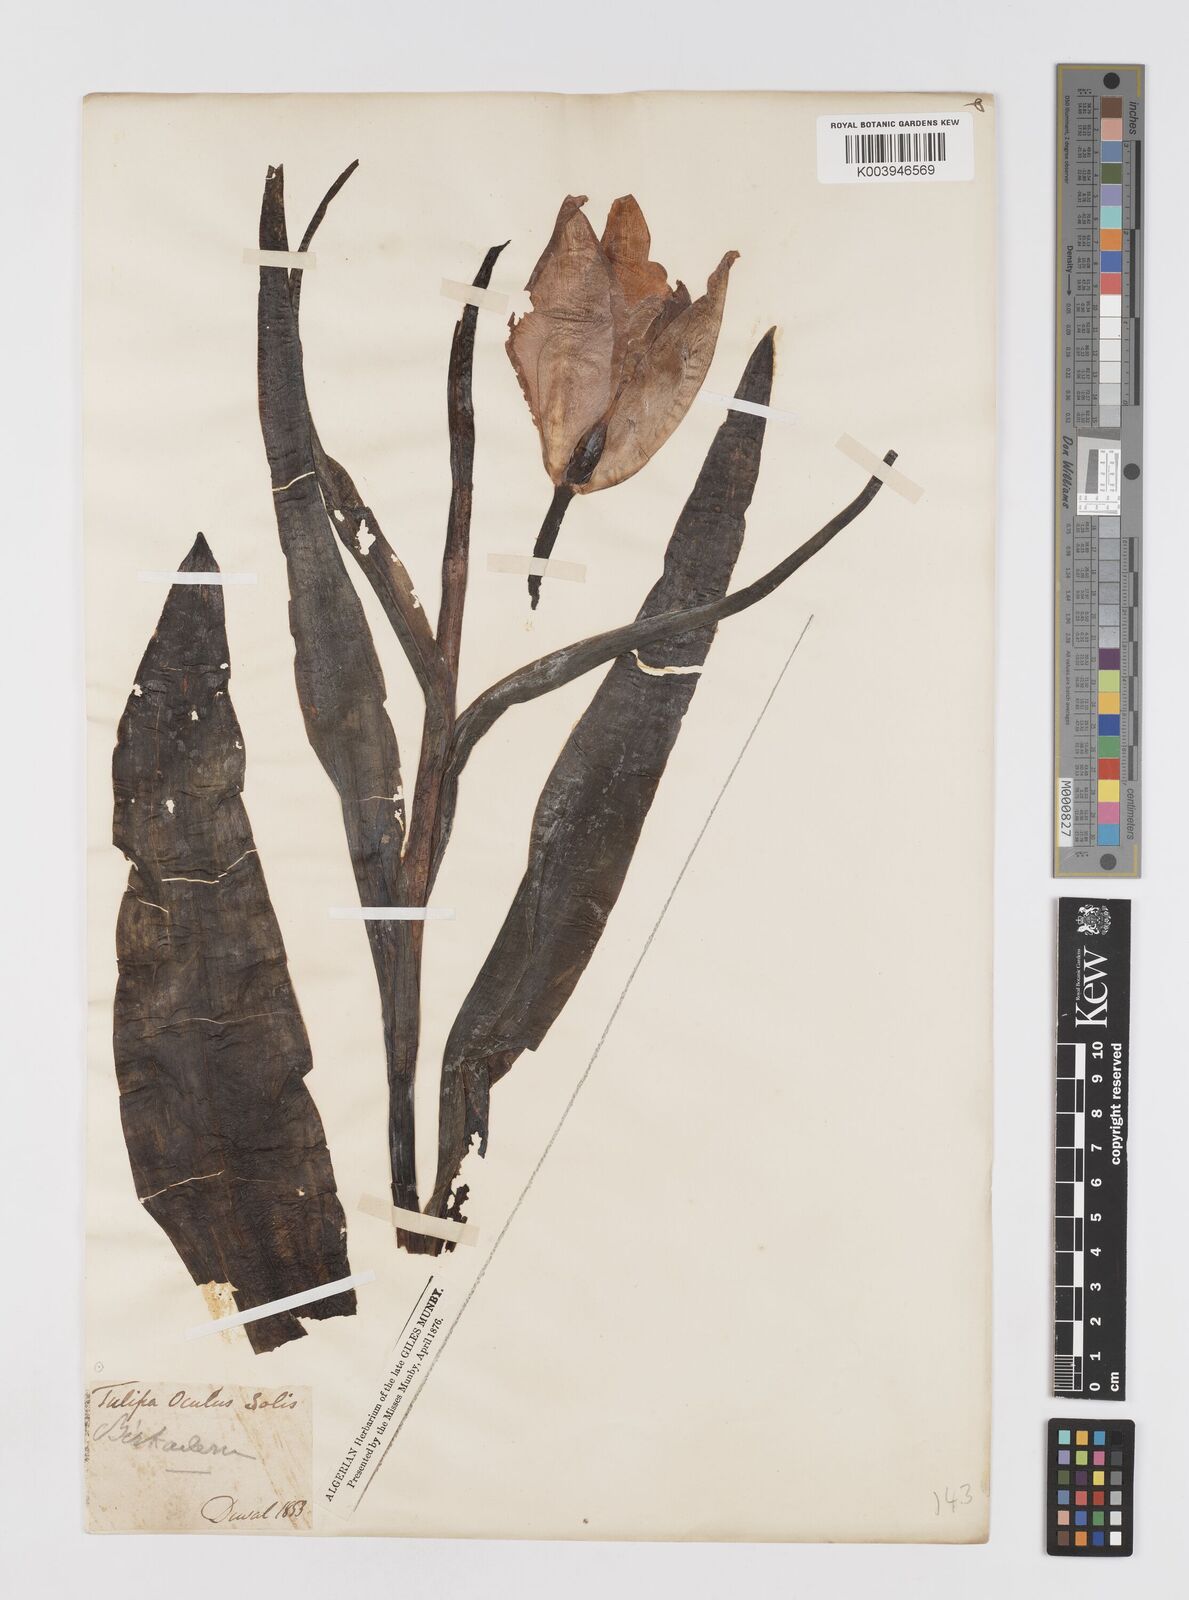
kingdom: Plantae
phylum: Tracheophyta
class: Liliopsida
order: Liliales
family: Liliaceae
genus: Tulipa
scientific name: Tulipa agenensis
